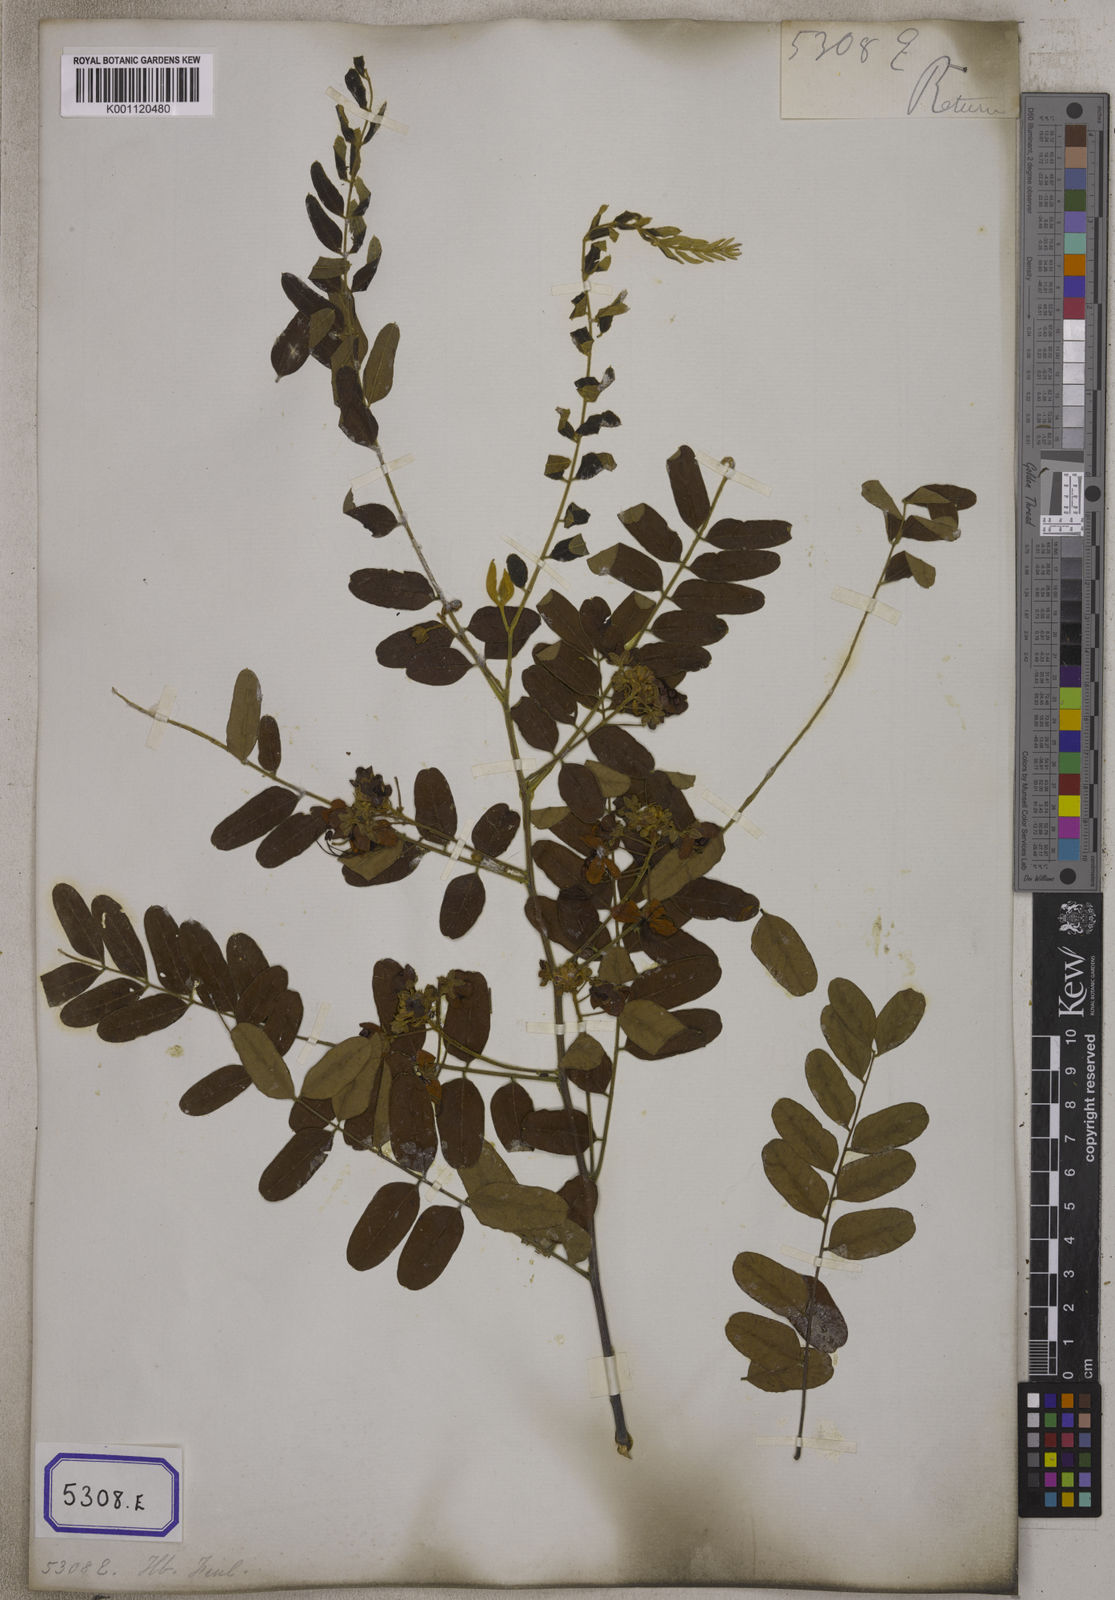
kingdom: Plantae
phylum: Tracheophyta
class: Magnoliopsida
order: Fabales
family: Fabaceae
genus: Cassia
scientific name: Cassia roxburghii
